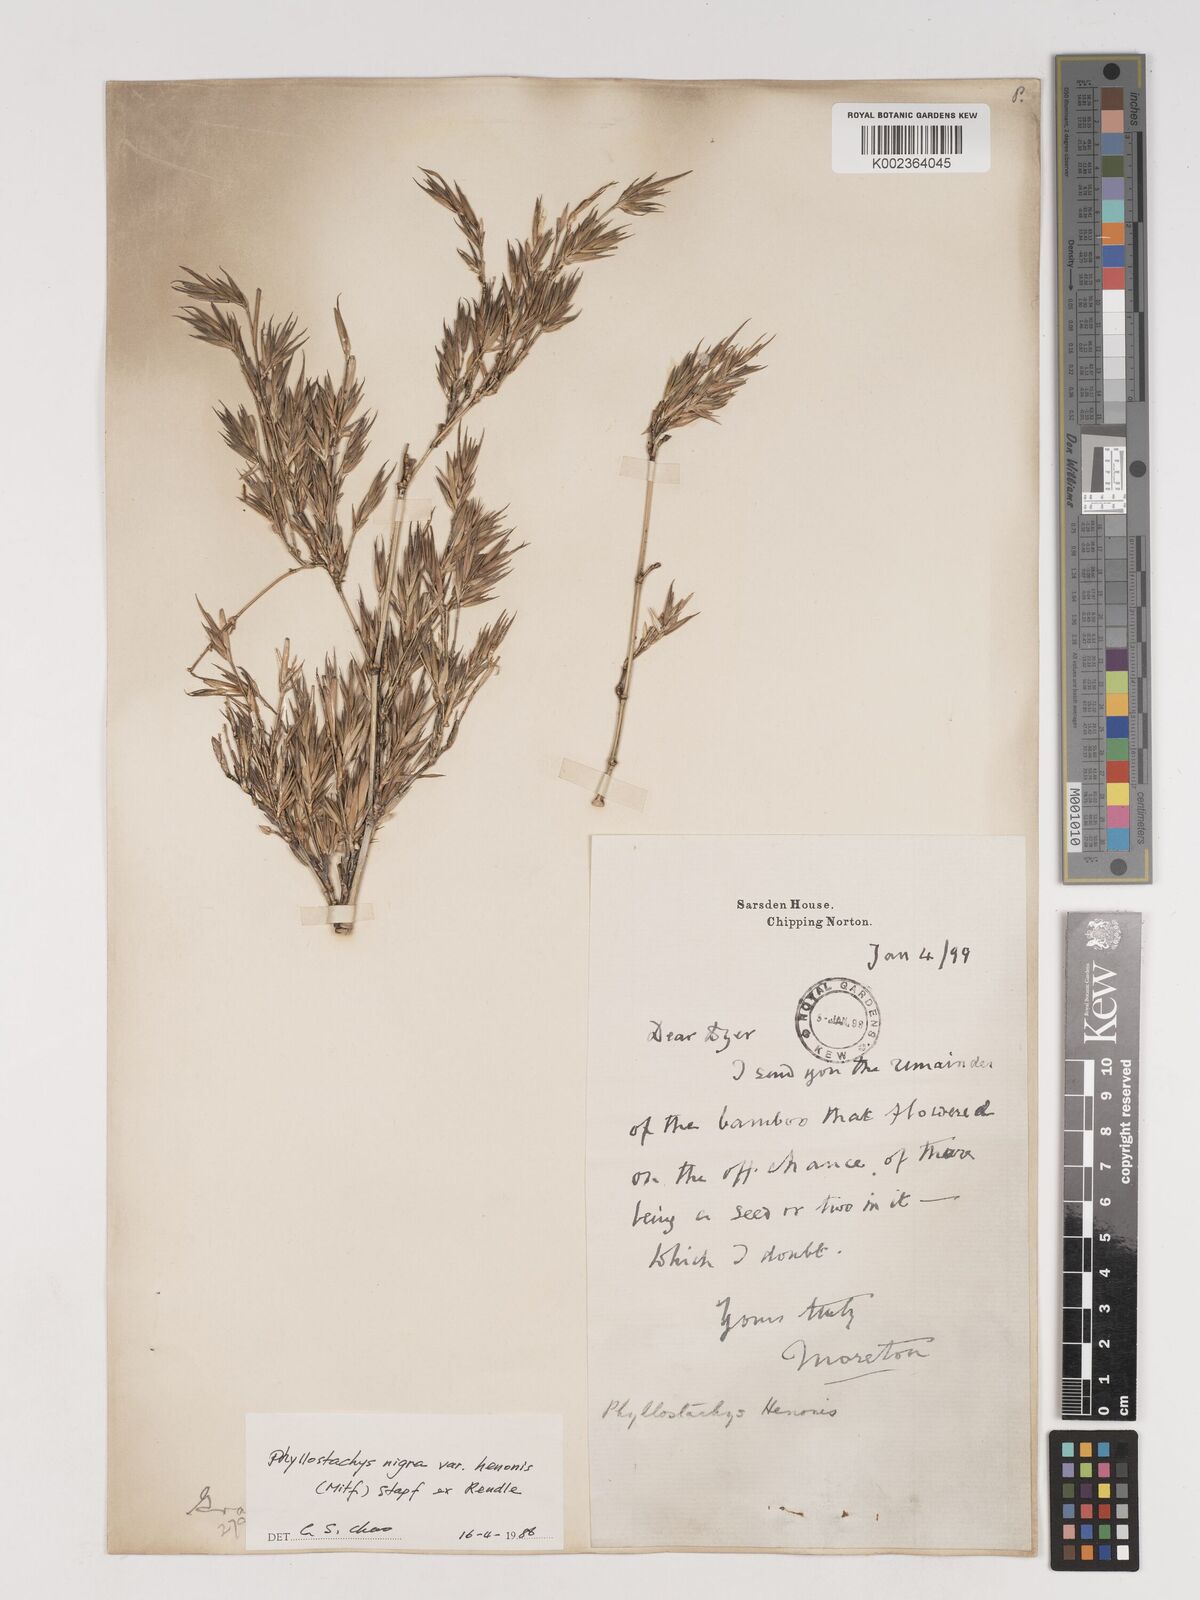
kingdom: Plantae
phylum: Tracheophyta
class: Liliopsida
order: Poales
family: Poaceae
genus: Phyllostachys
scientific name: Phyllostachys nigra
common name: Black bamboo
